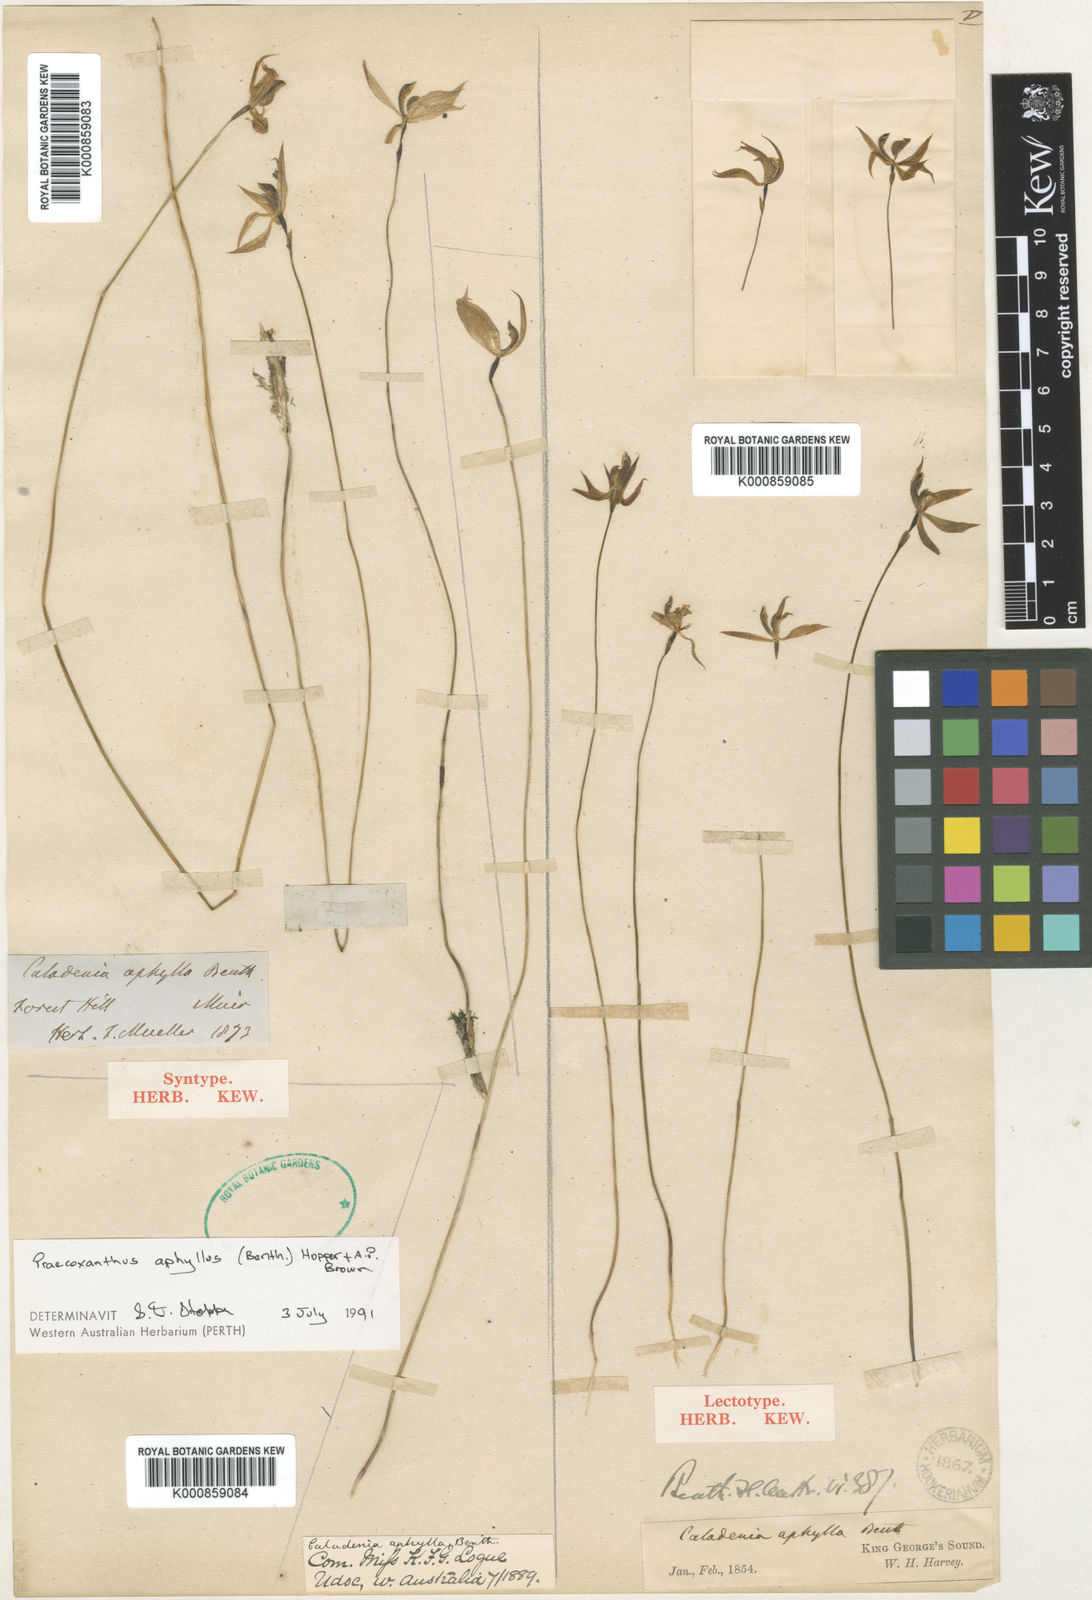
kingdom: Plantae
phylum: Tracheophyta
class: Liliopsida
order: Asparagales
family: Orchidaceae
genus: Praecoxanthus
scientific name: Praecoxanthus aphyllus
